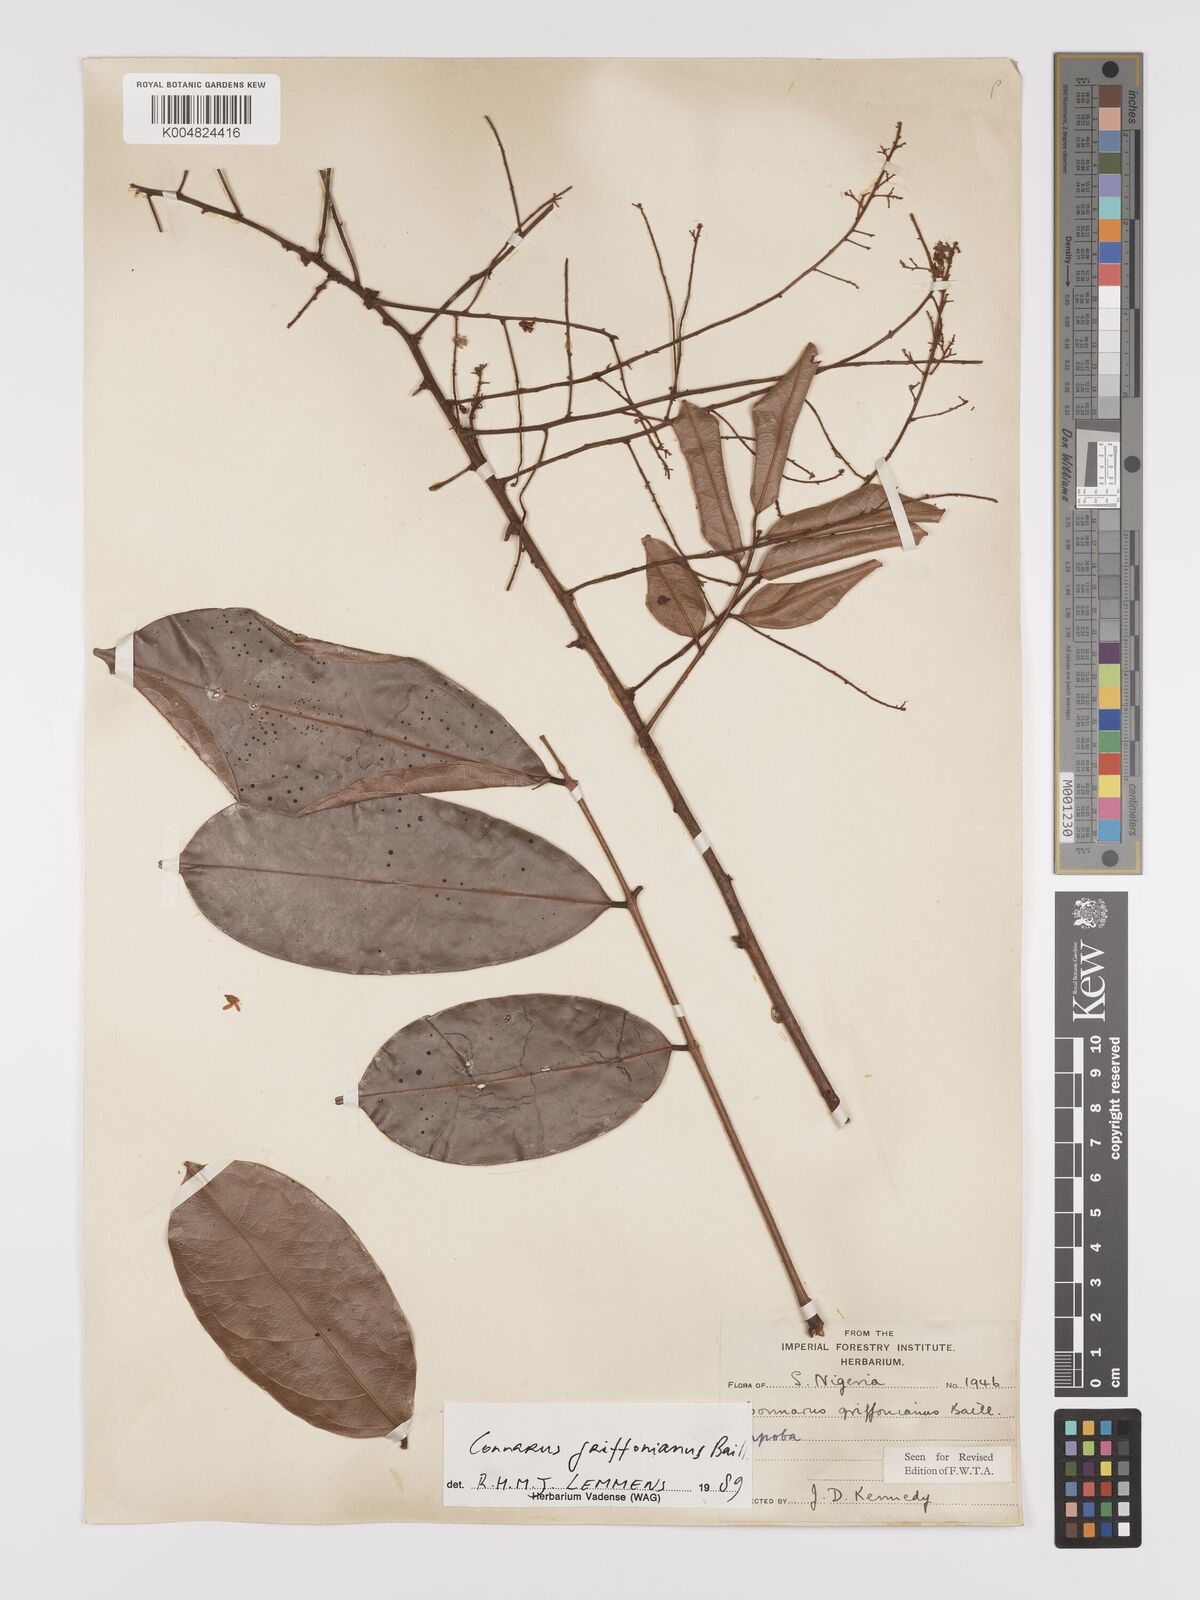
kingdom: Plantae
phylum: Tracheophyta
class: Magnoliopsida
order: Oxalidales
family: Connaraceae
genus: Connarus
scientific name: Connarus griffonianus
